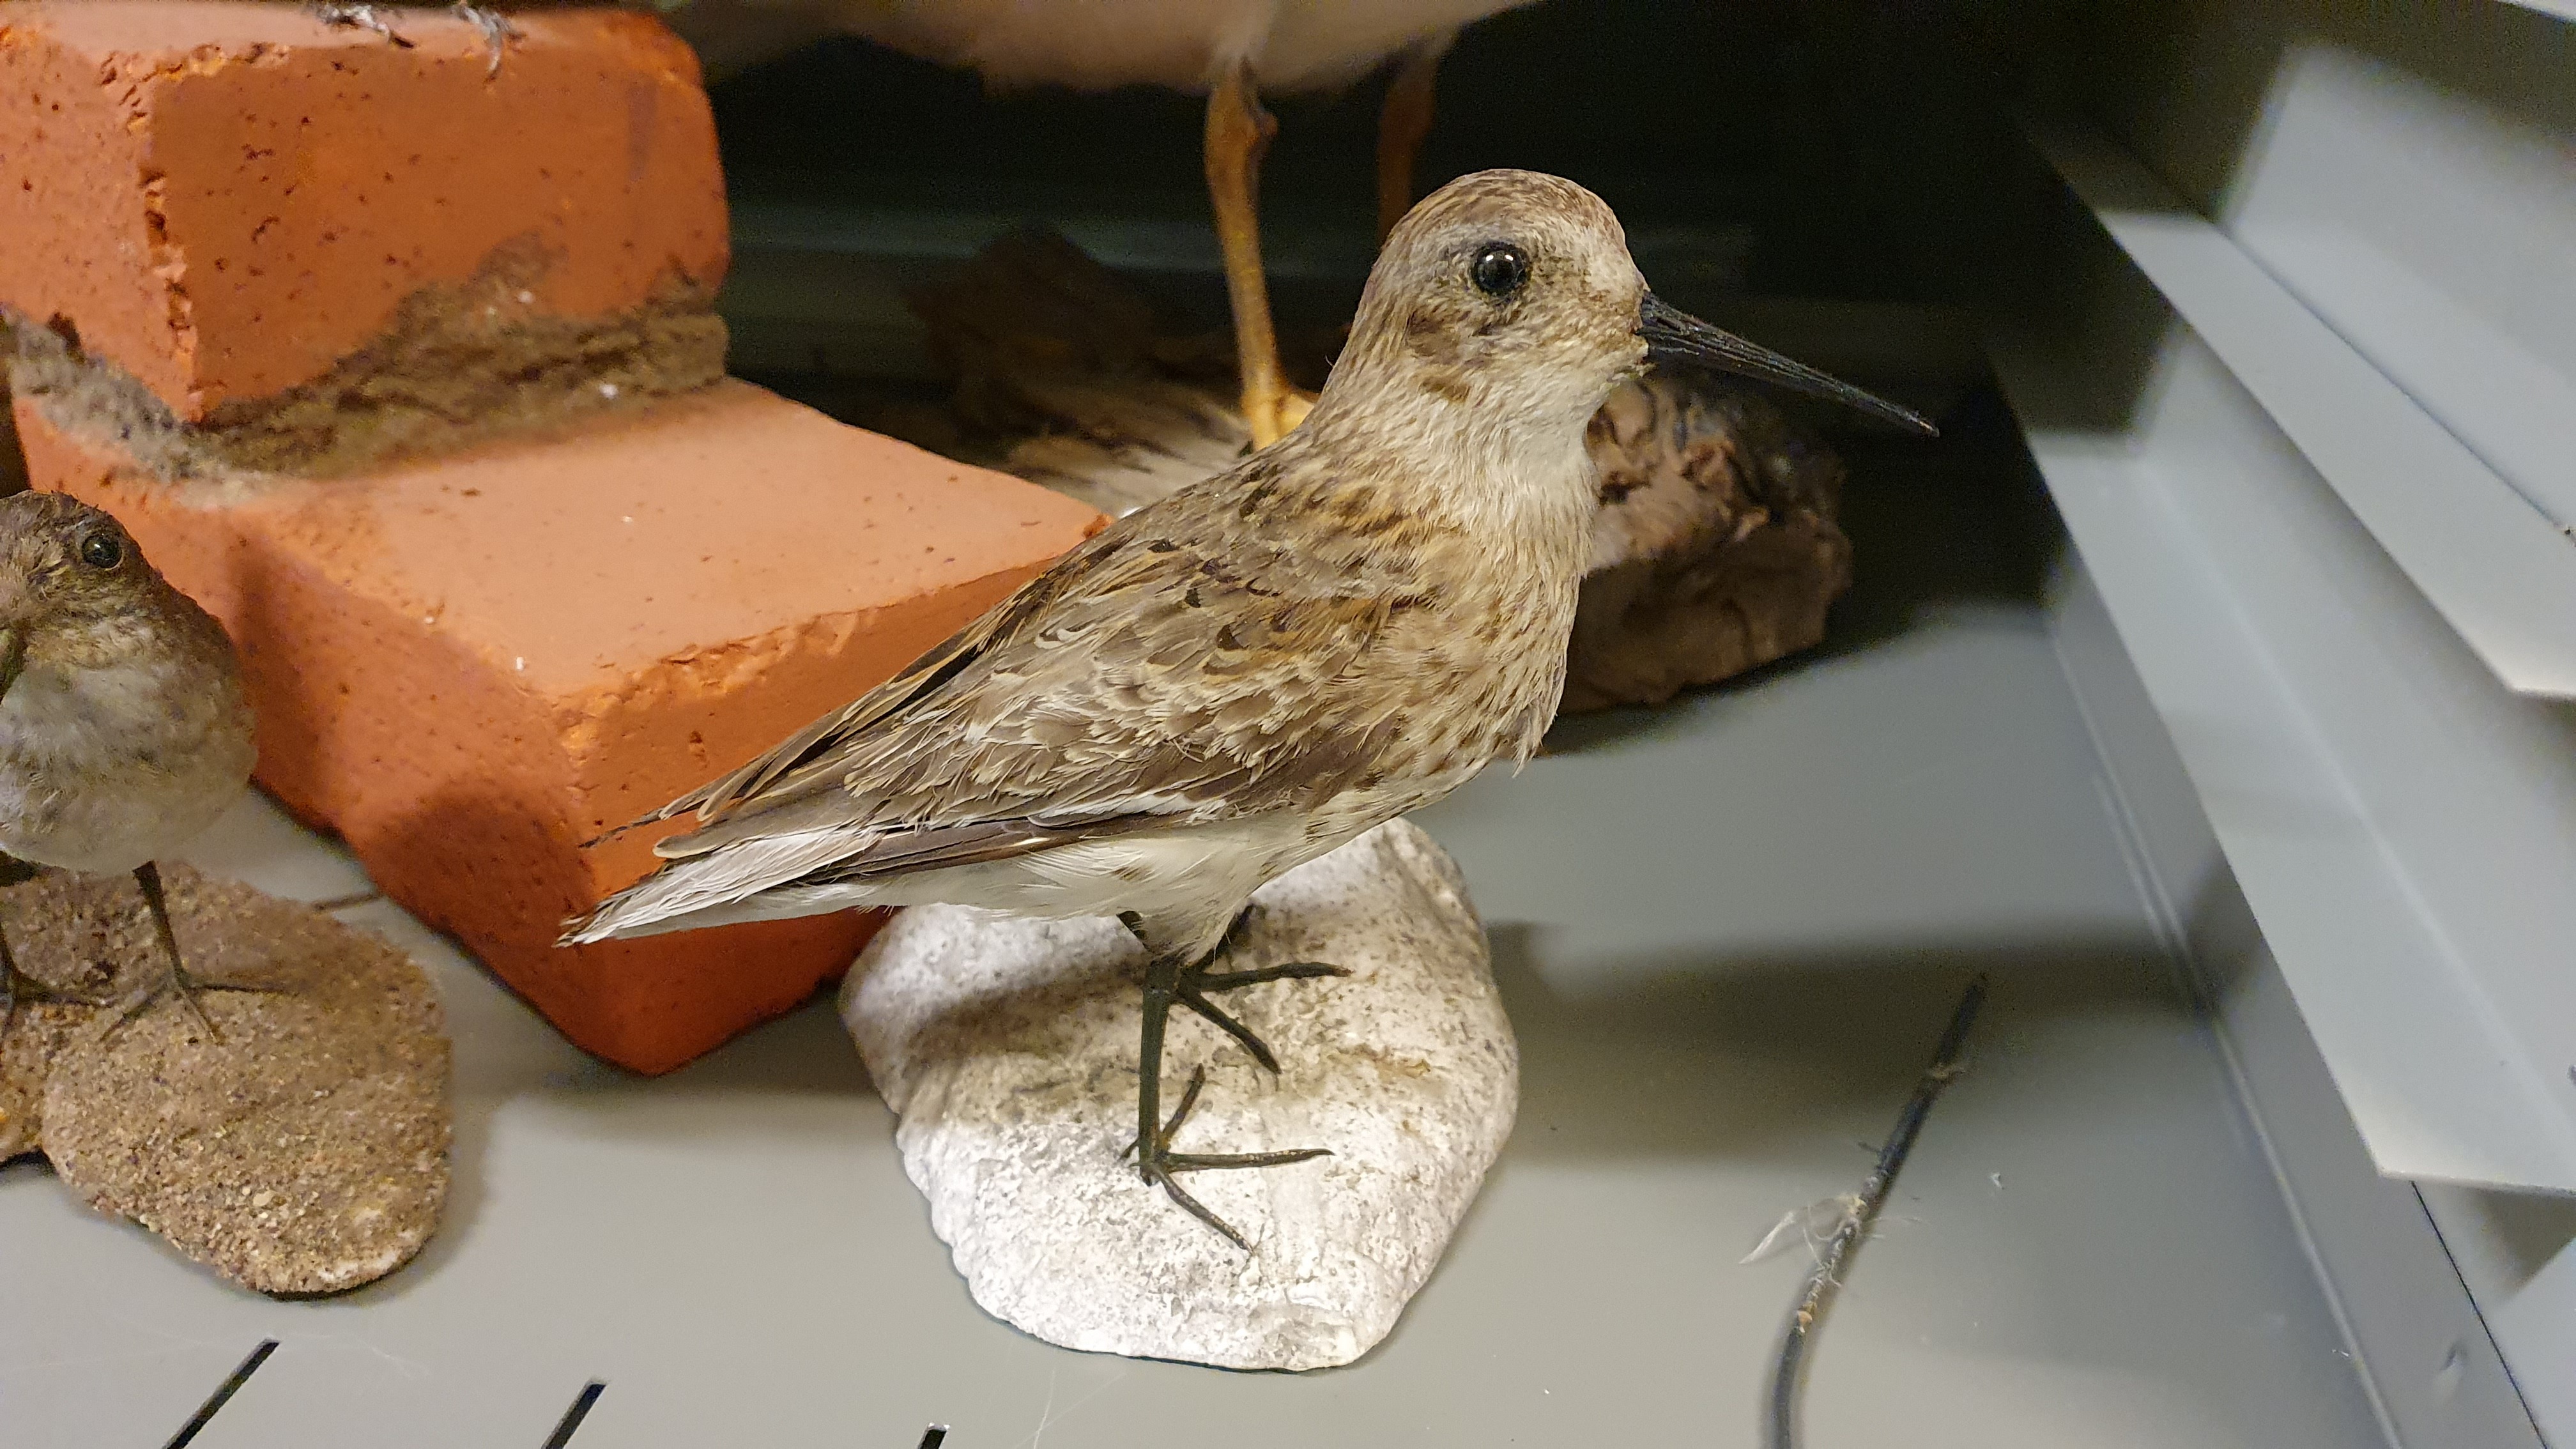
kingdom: Animalia
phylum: Chordata
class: Aves
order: Charadriiformes
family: Scolopacidae
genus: Calidris
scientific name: Calidris alpina
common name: Dunlin
